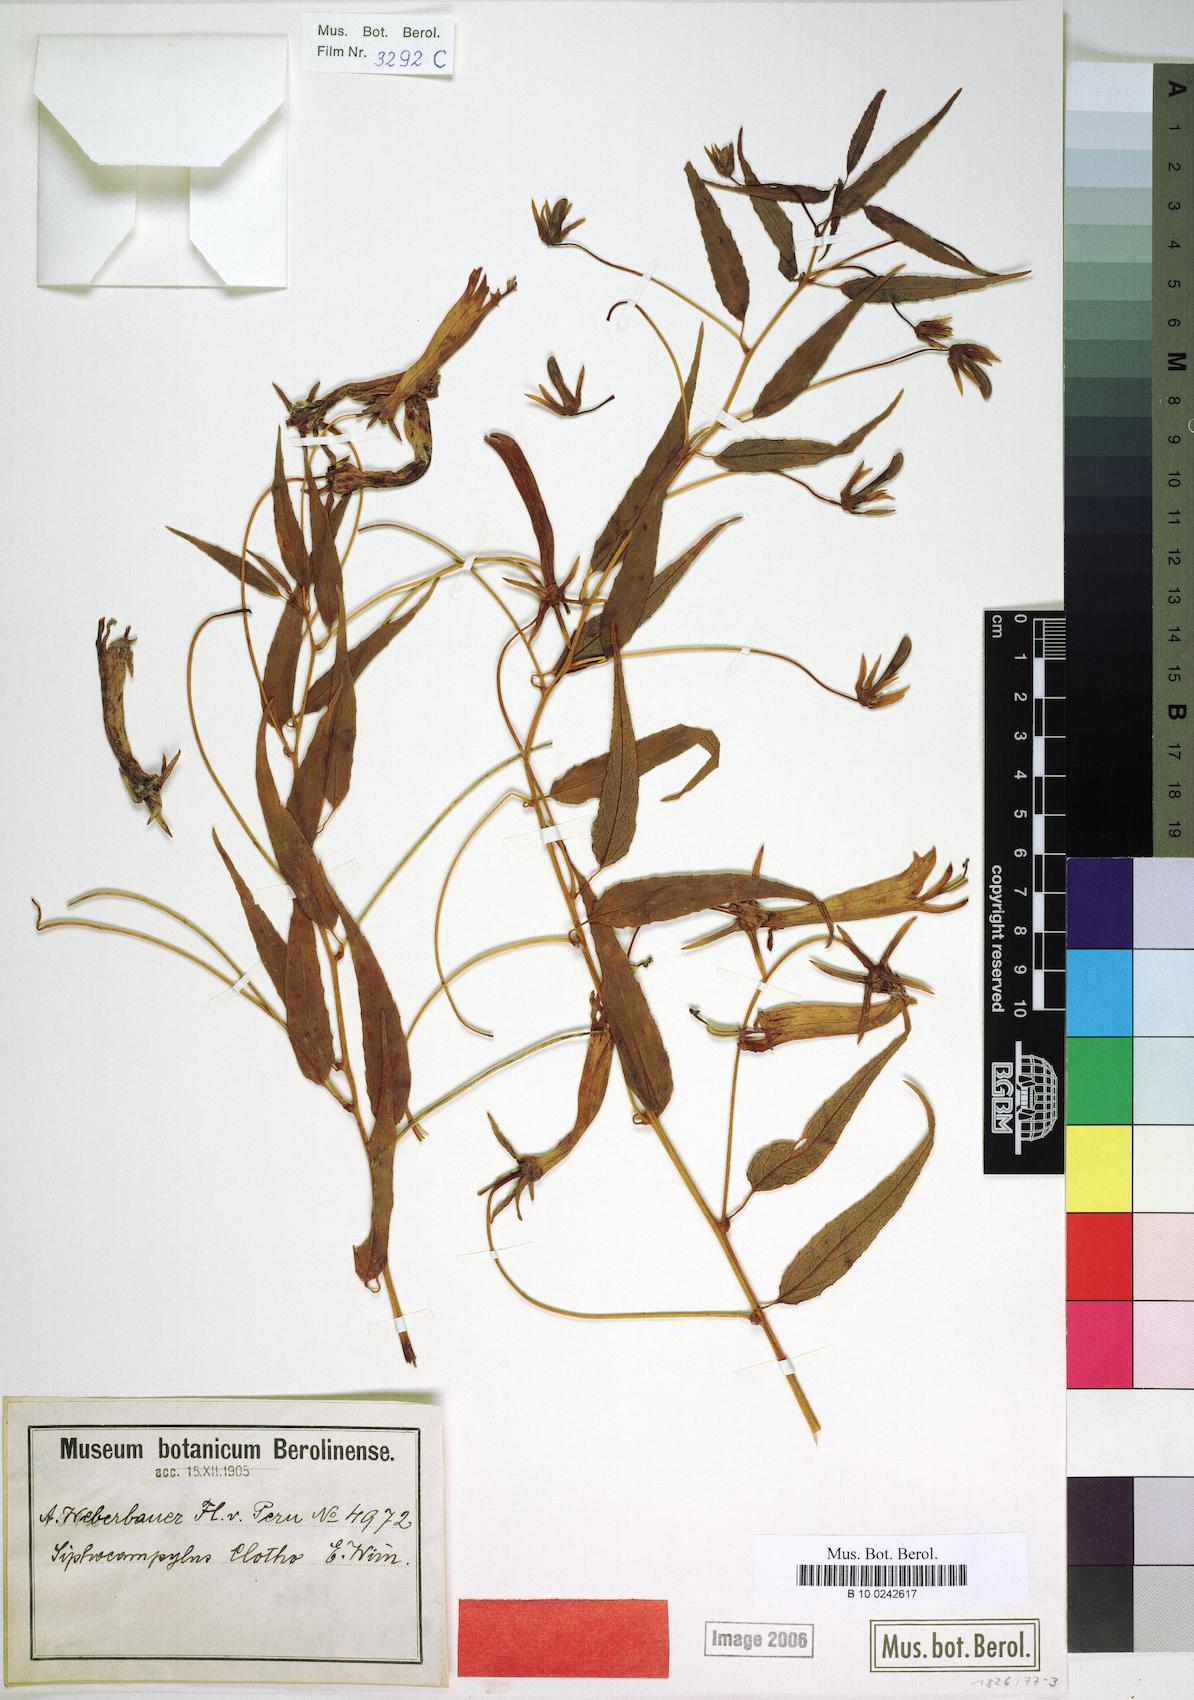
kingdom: Plantae
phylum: Tracheophyta
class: Magnoliopsida
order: Asterales
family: Campanulaceae
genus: Siphocampylus
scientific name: Siphocampylus clotho
